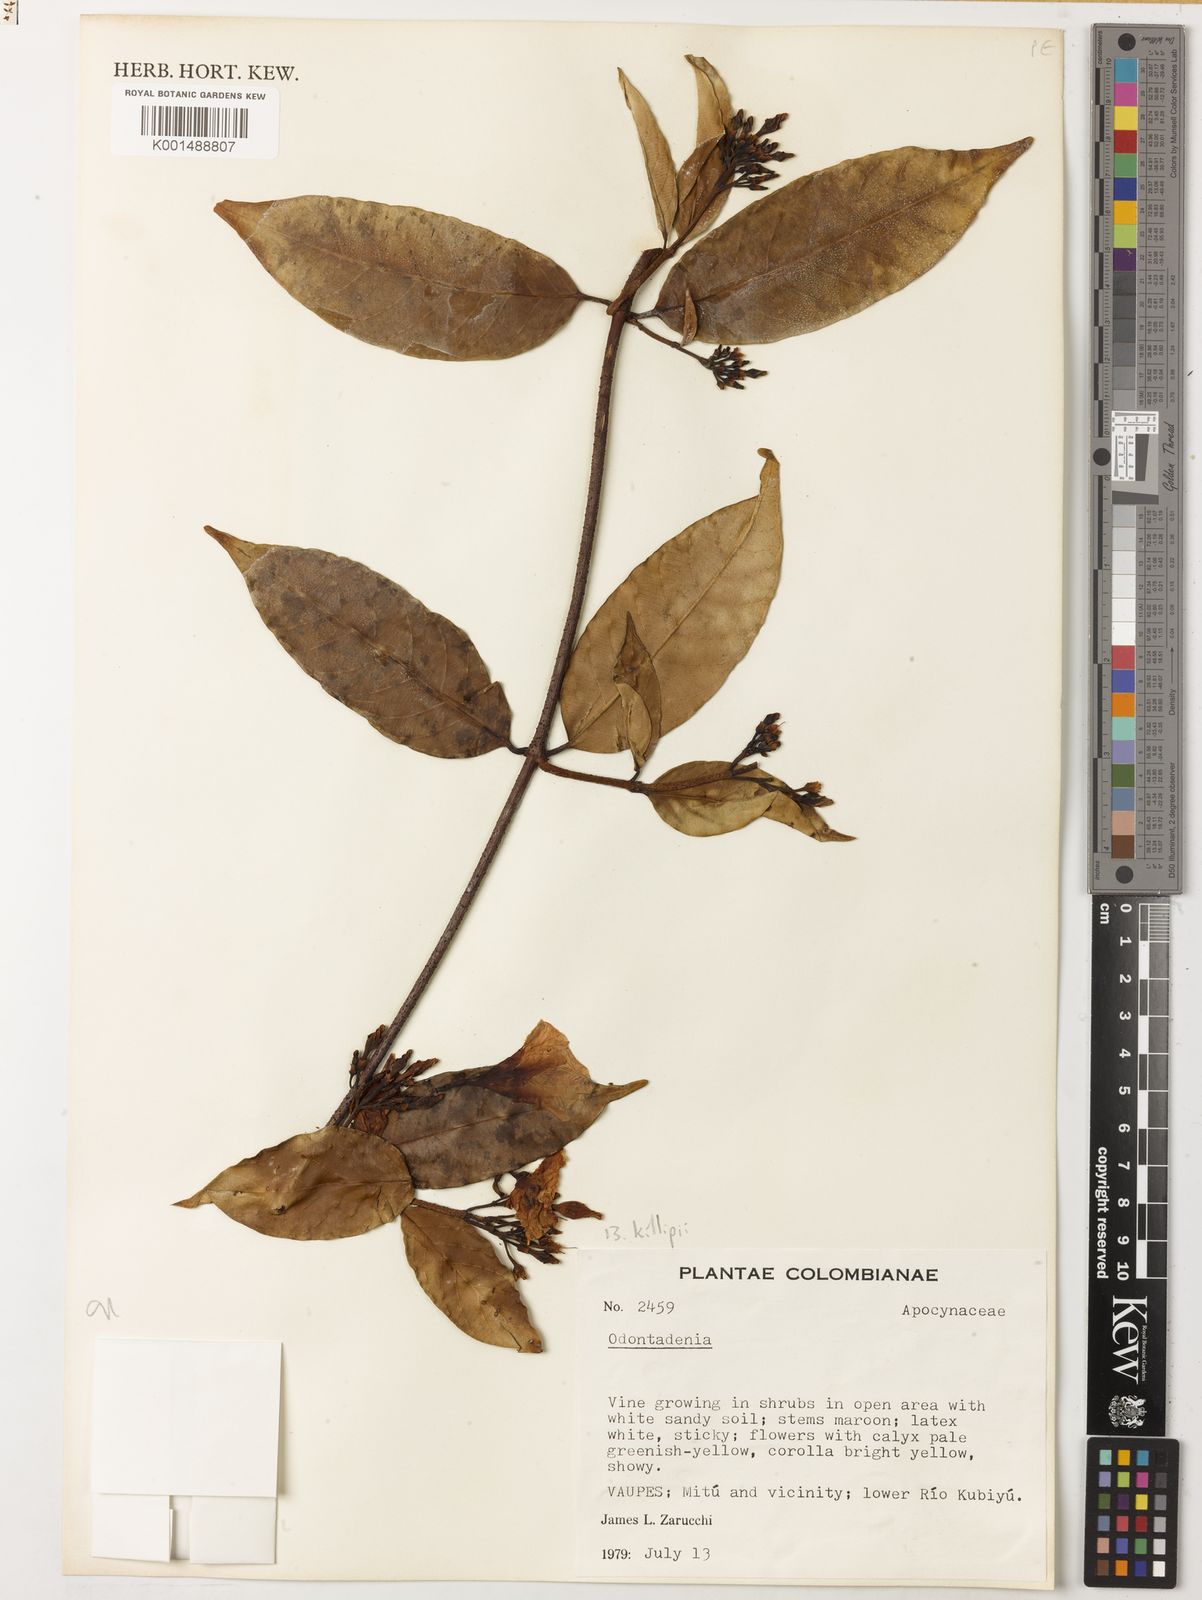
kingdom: Plantae
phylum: Tracheophyta
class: Magnoliopsida
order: Gentianales
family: Apocynaceae
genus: Odontadenia
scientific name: Odontadenia killipii
